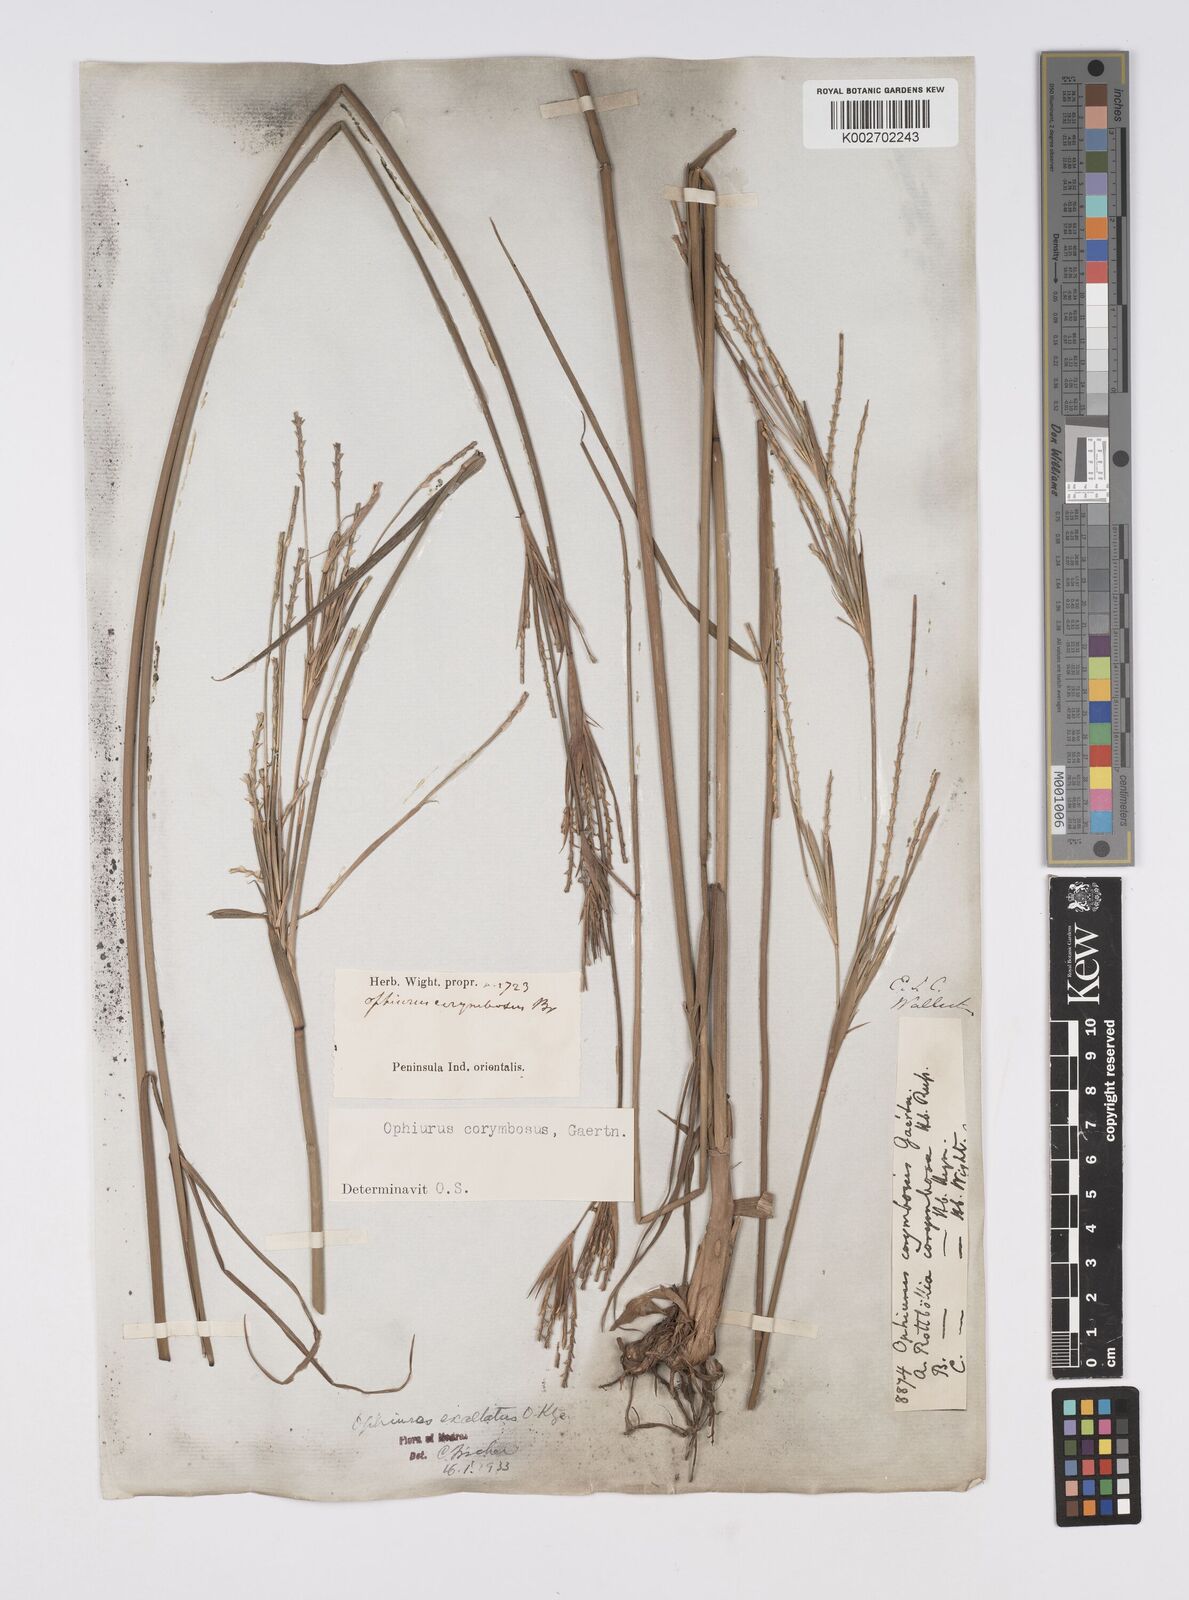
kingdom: Plantae
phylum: Tracheophyta
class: Liliopsida
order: Poales
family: Poaceae
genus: Ophiuros
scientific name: Ophiuros exaltatus
